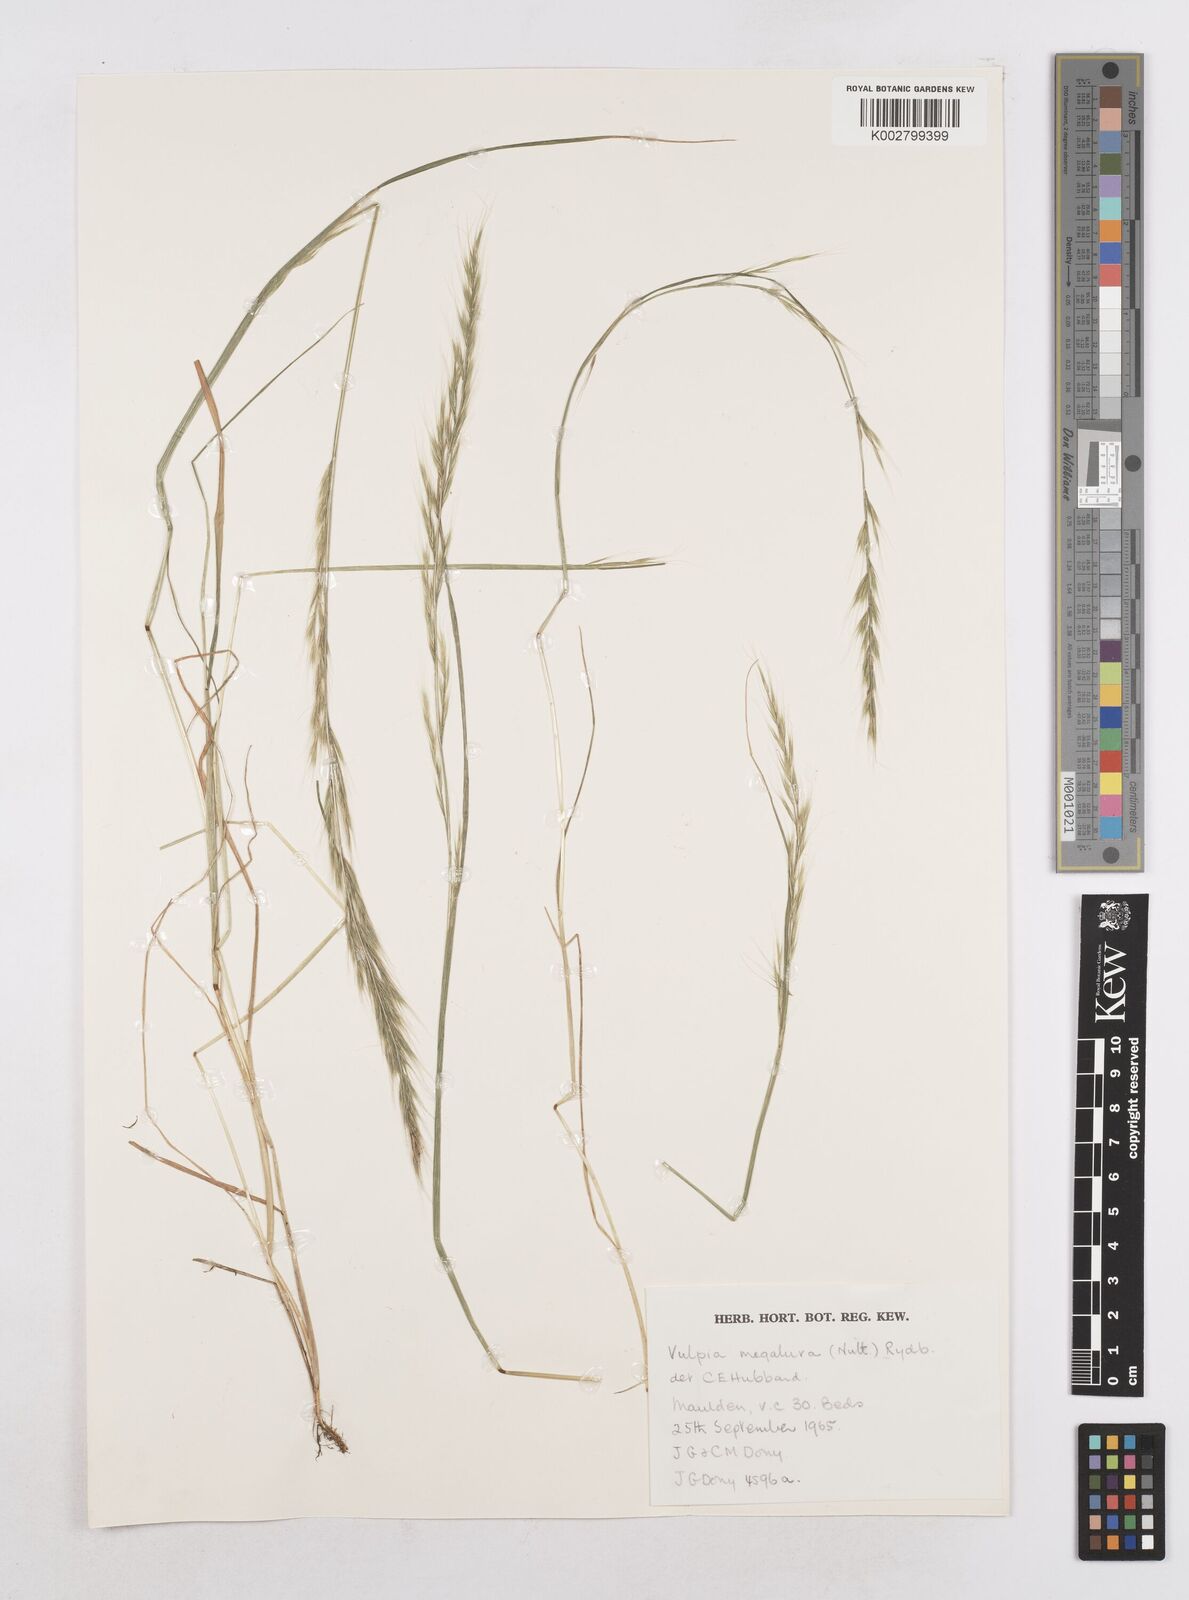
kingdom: Plantae
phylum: Tracheophyta
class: Liliopsida
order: Poales
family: Poaceae
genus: Festuca
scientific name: Festuca myuros
